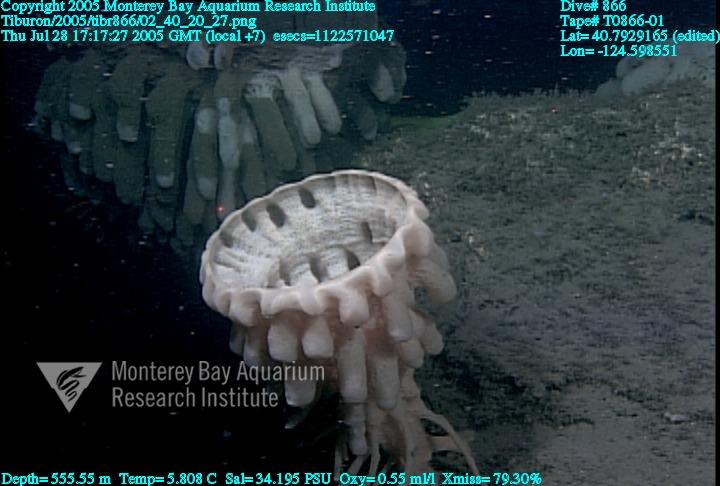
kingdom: Animalia
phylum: Porifera
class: Hexactinellida
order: Sceptrulophora
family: Aphrocallistidae
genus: Heterochone
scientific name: Heterochone calyx
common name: Fingered goblet glass sponge
